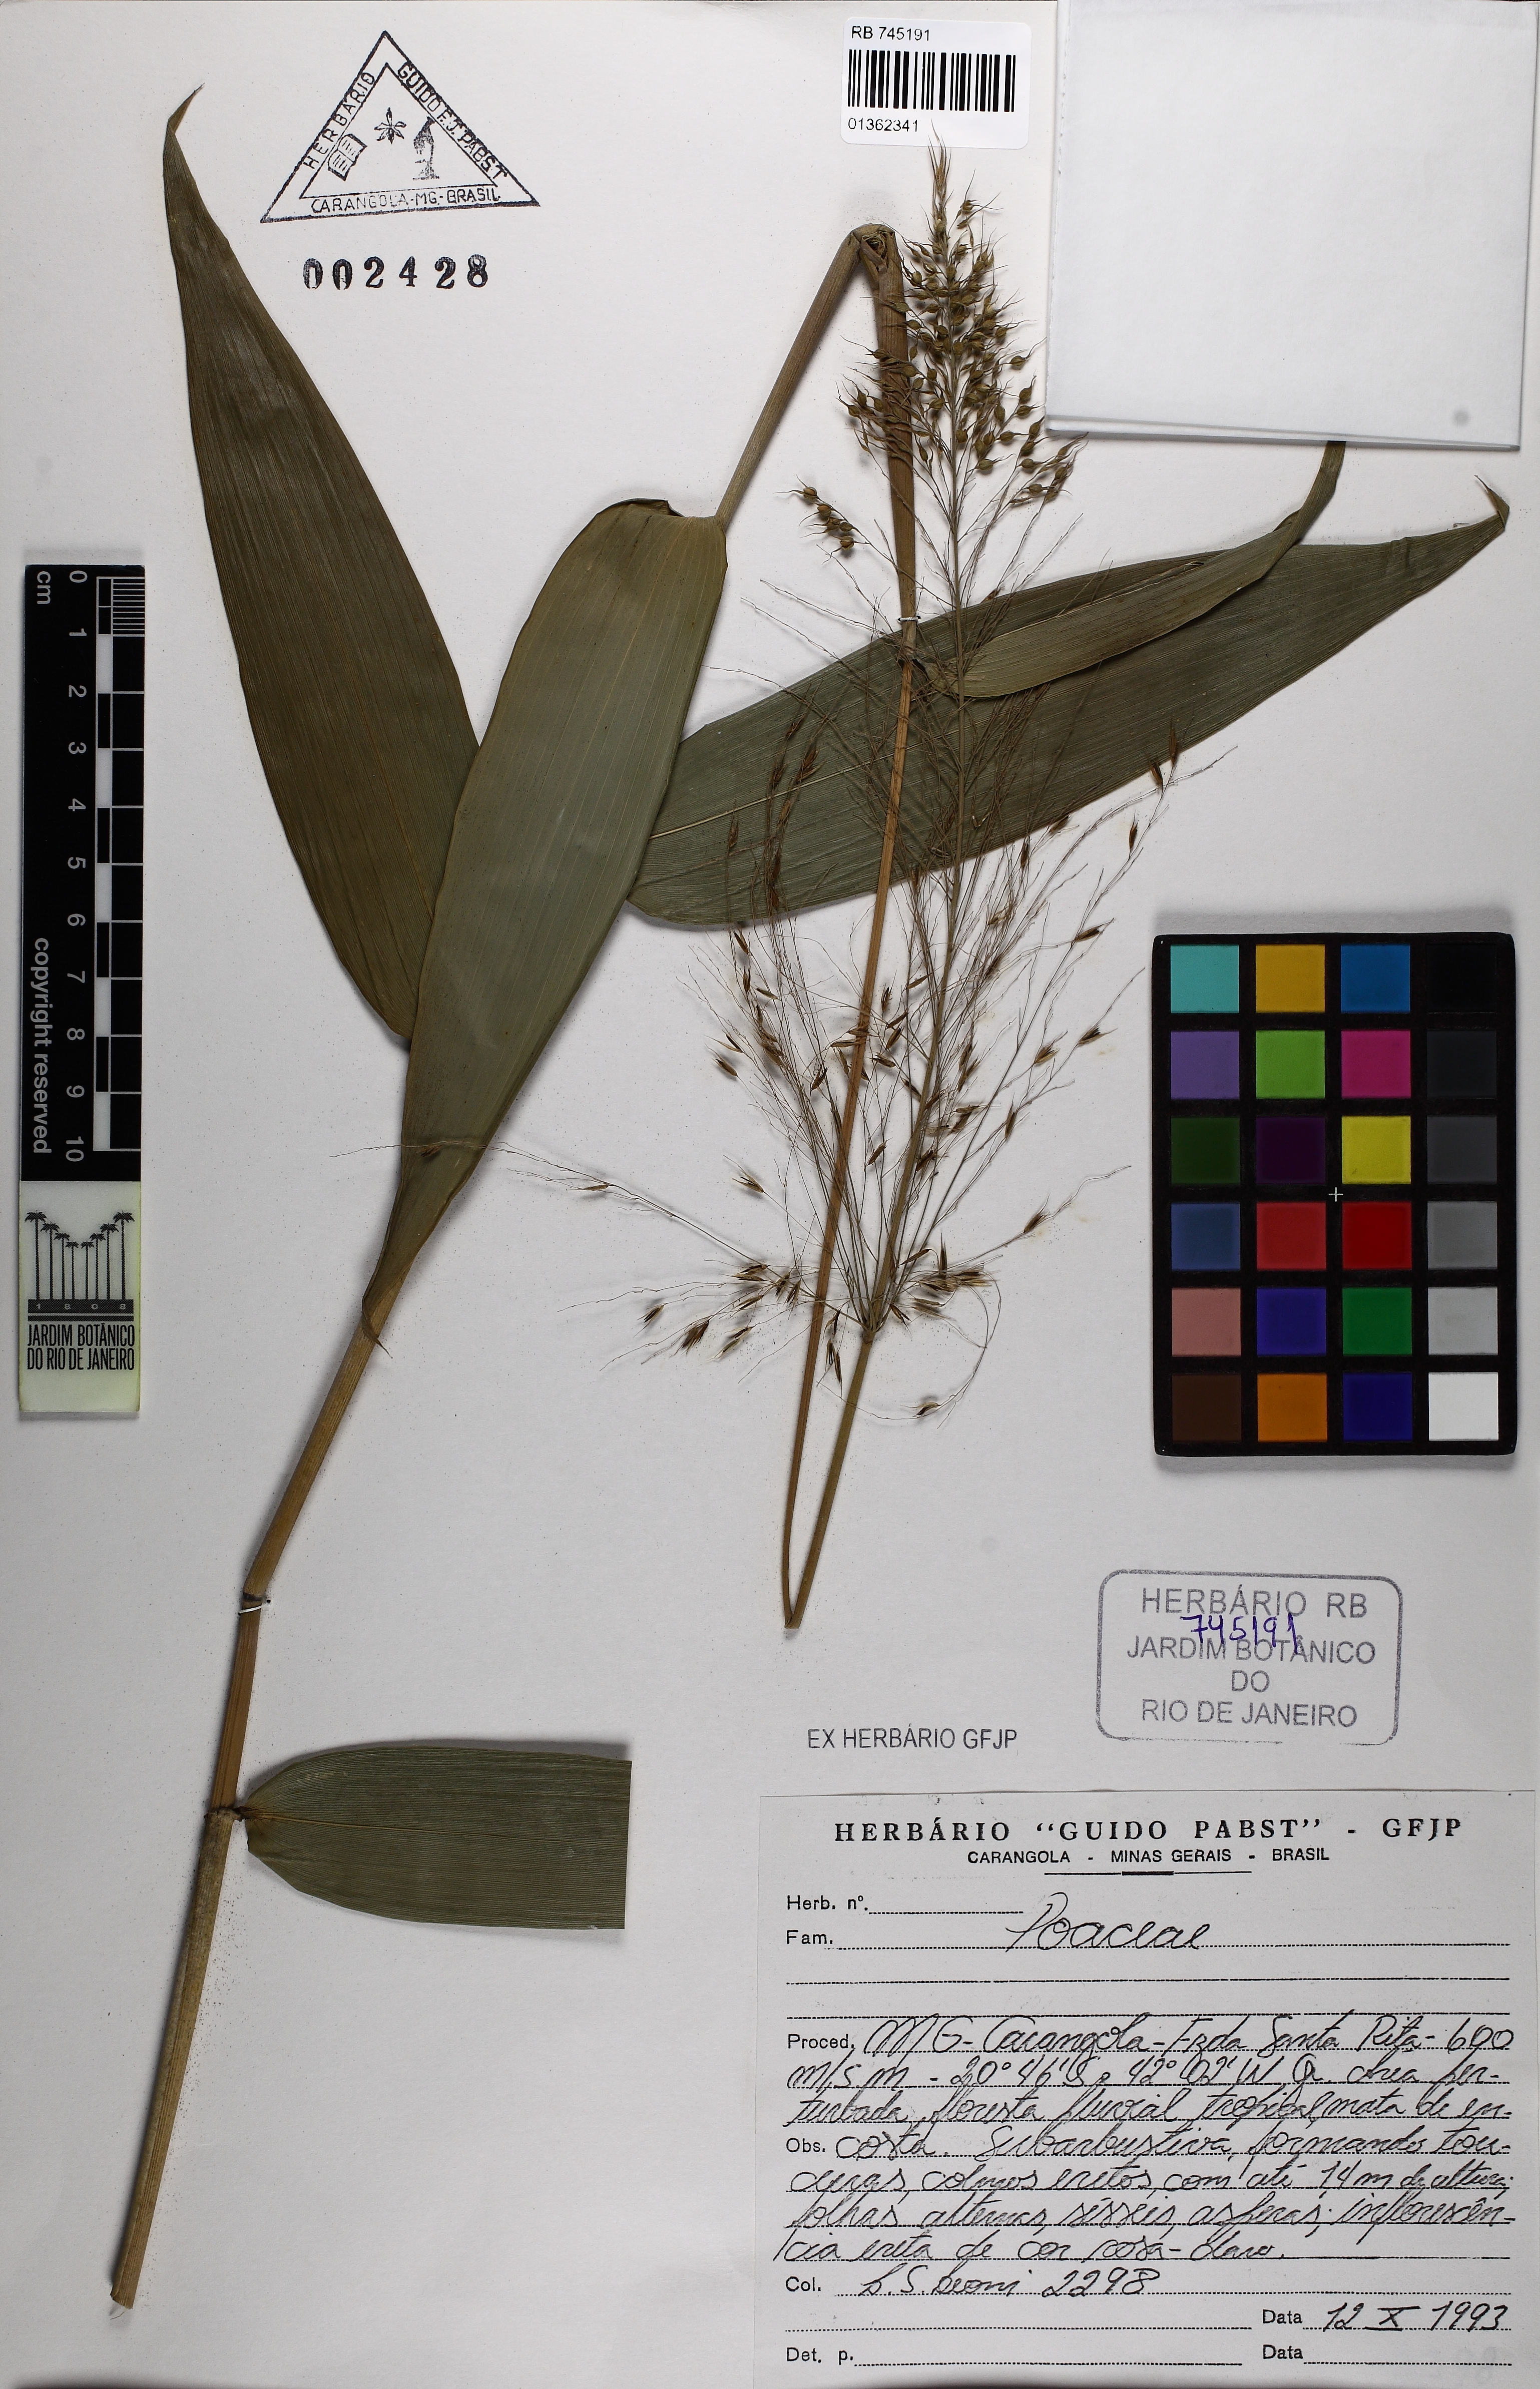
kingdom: Plantae
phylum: Tracheophyta
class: Liliopsida
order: Poales
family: Poaceae
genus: Olyra
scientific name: Olyra
